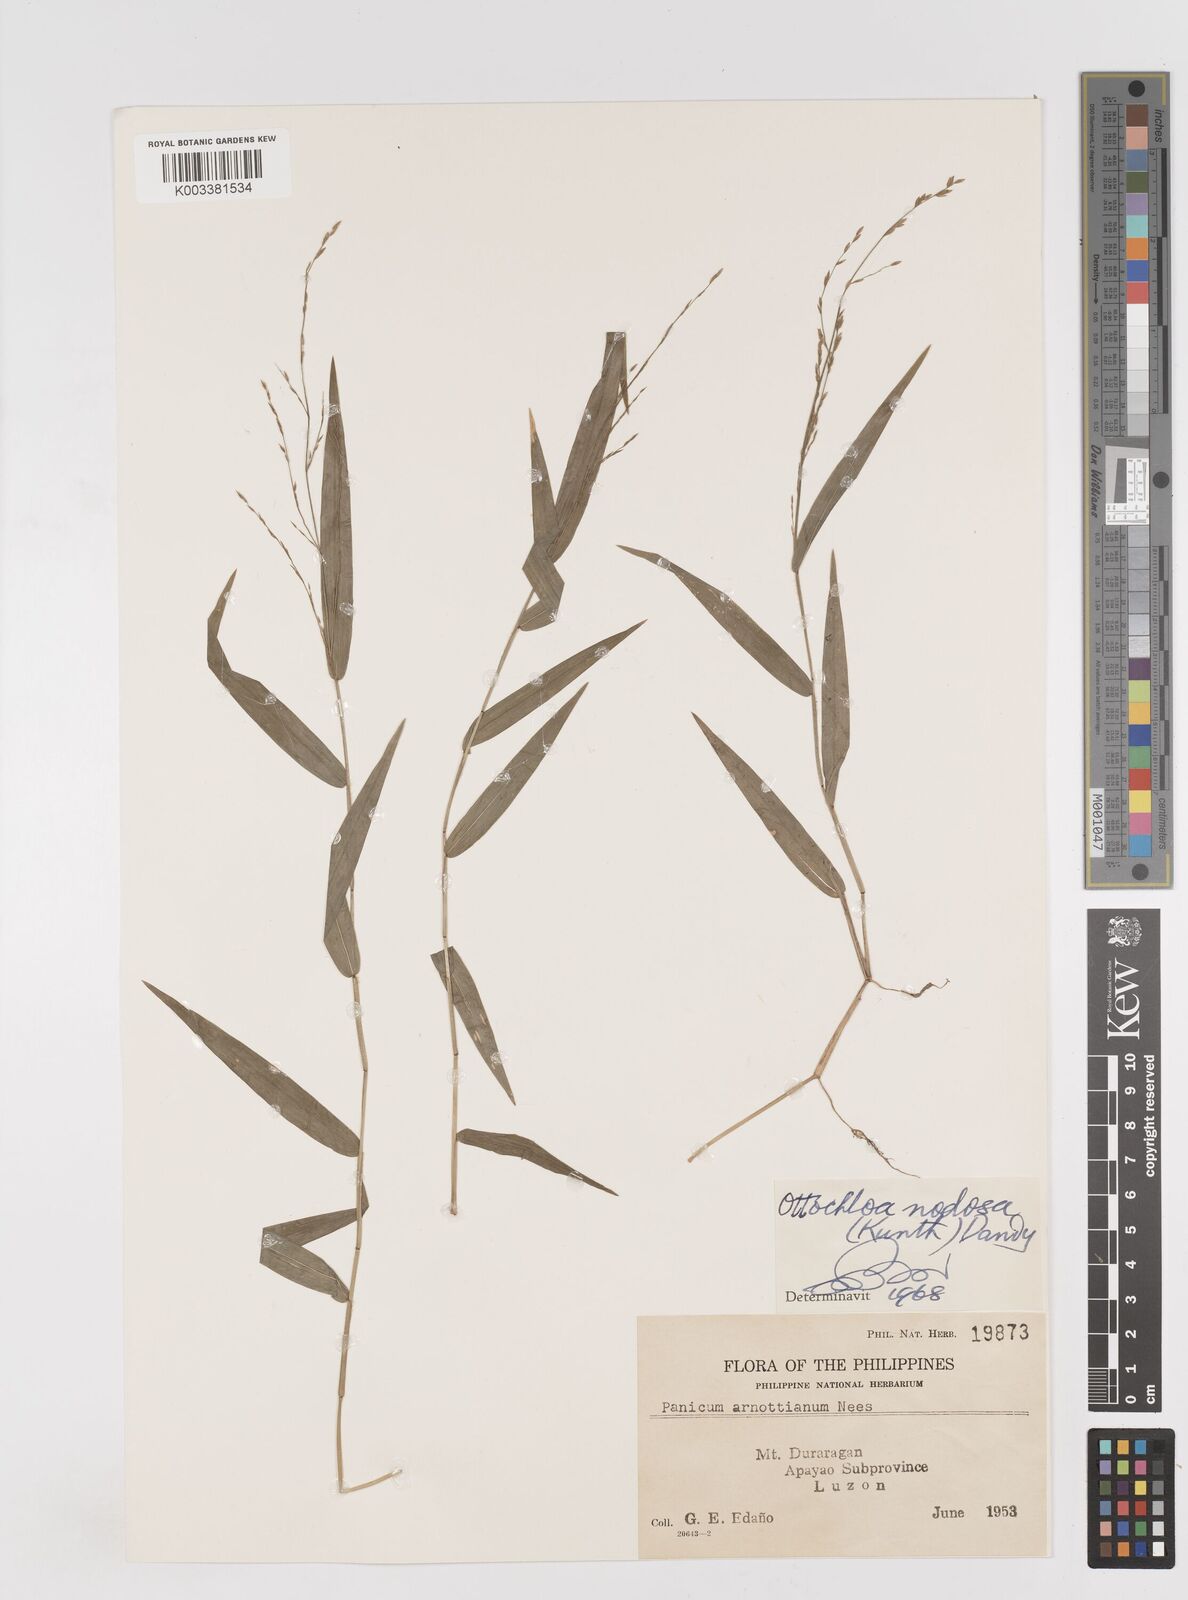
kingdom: Plantae
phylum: Tracheophyta
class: Liliopsida
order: Poales
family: Poaceae
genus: Ottochloa
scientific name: Ottochloa nodosa
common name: Slender-panic grass
